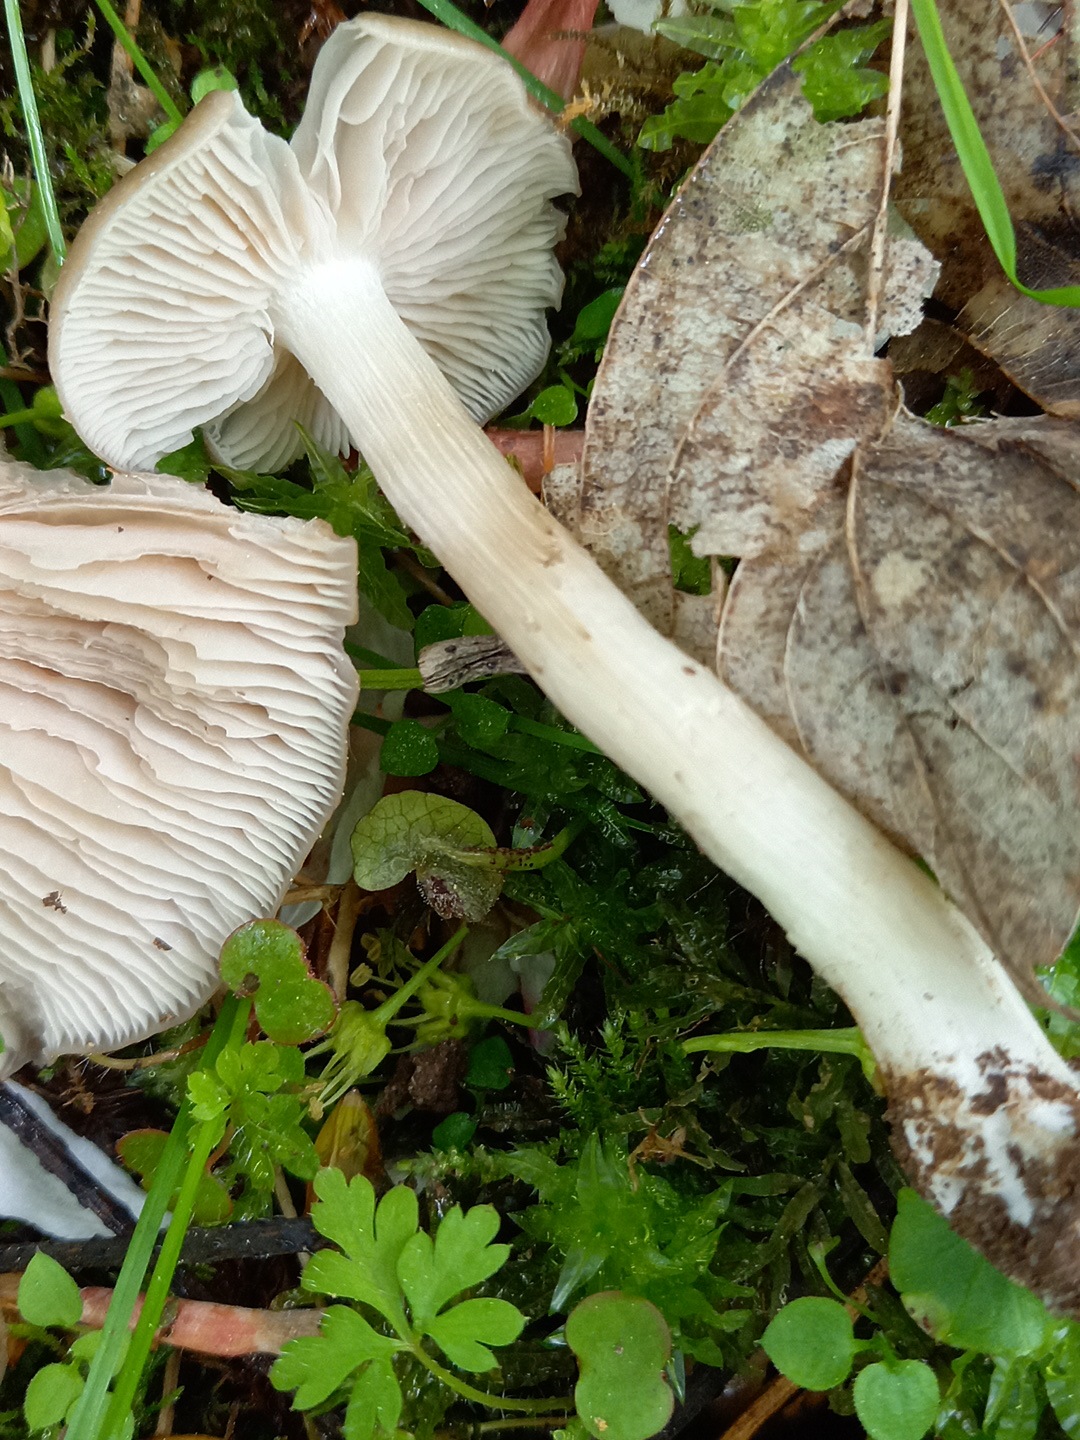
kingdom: Fungi
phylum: Basidiomycota
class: Agaricomycetes
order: Agaricales
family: Entolomataceae
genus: Entoloma
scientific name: Entoloma clypeatum
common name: flammet rødblad
